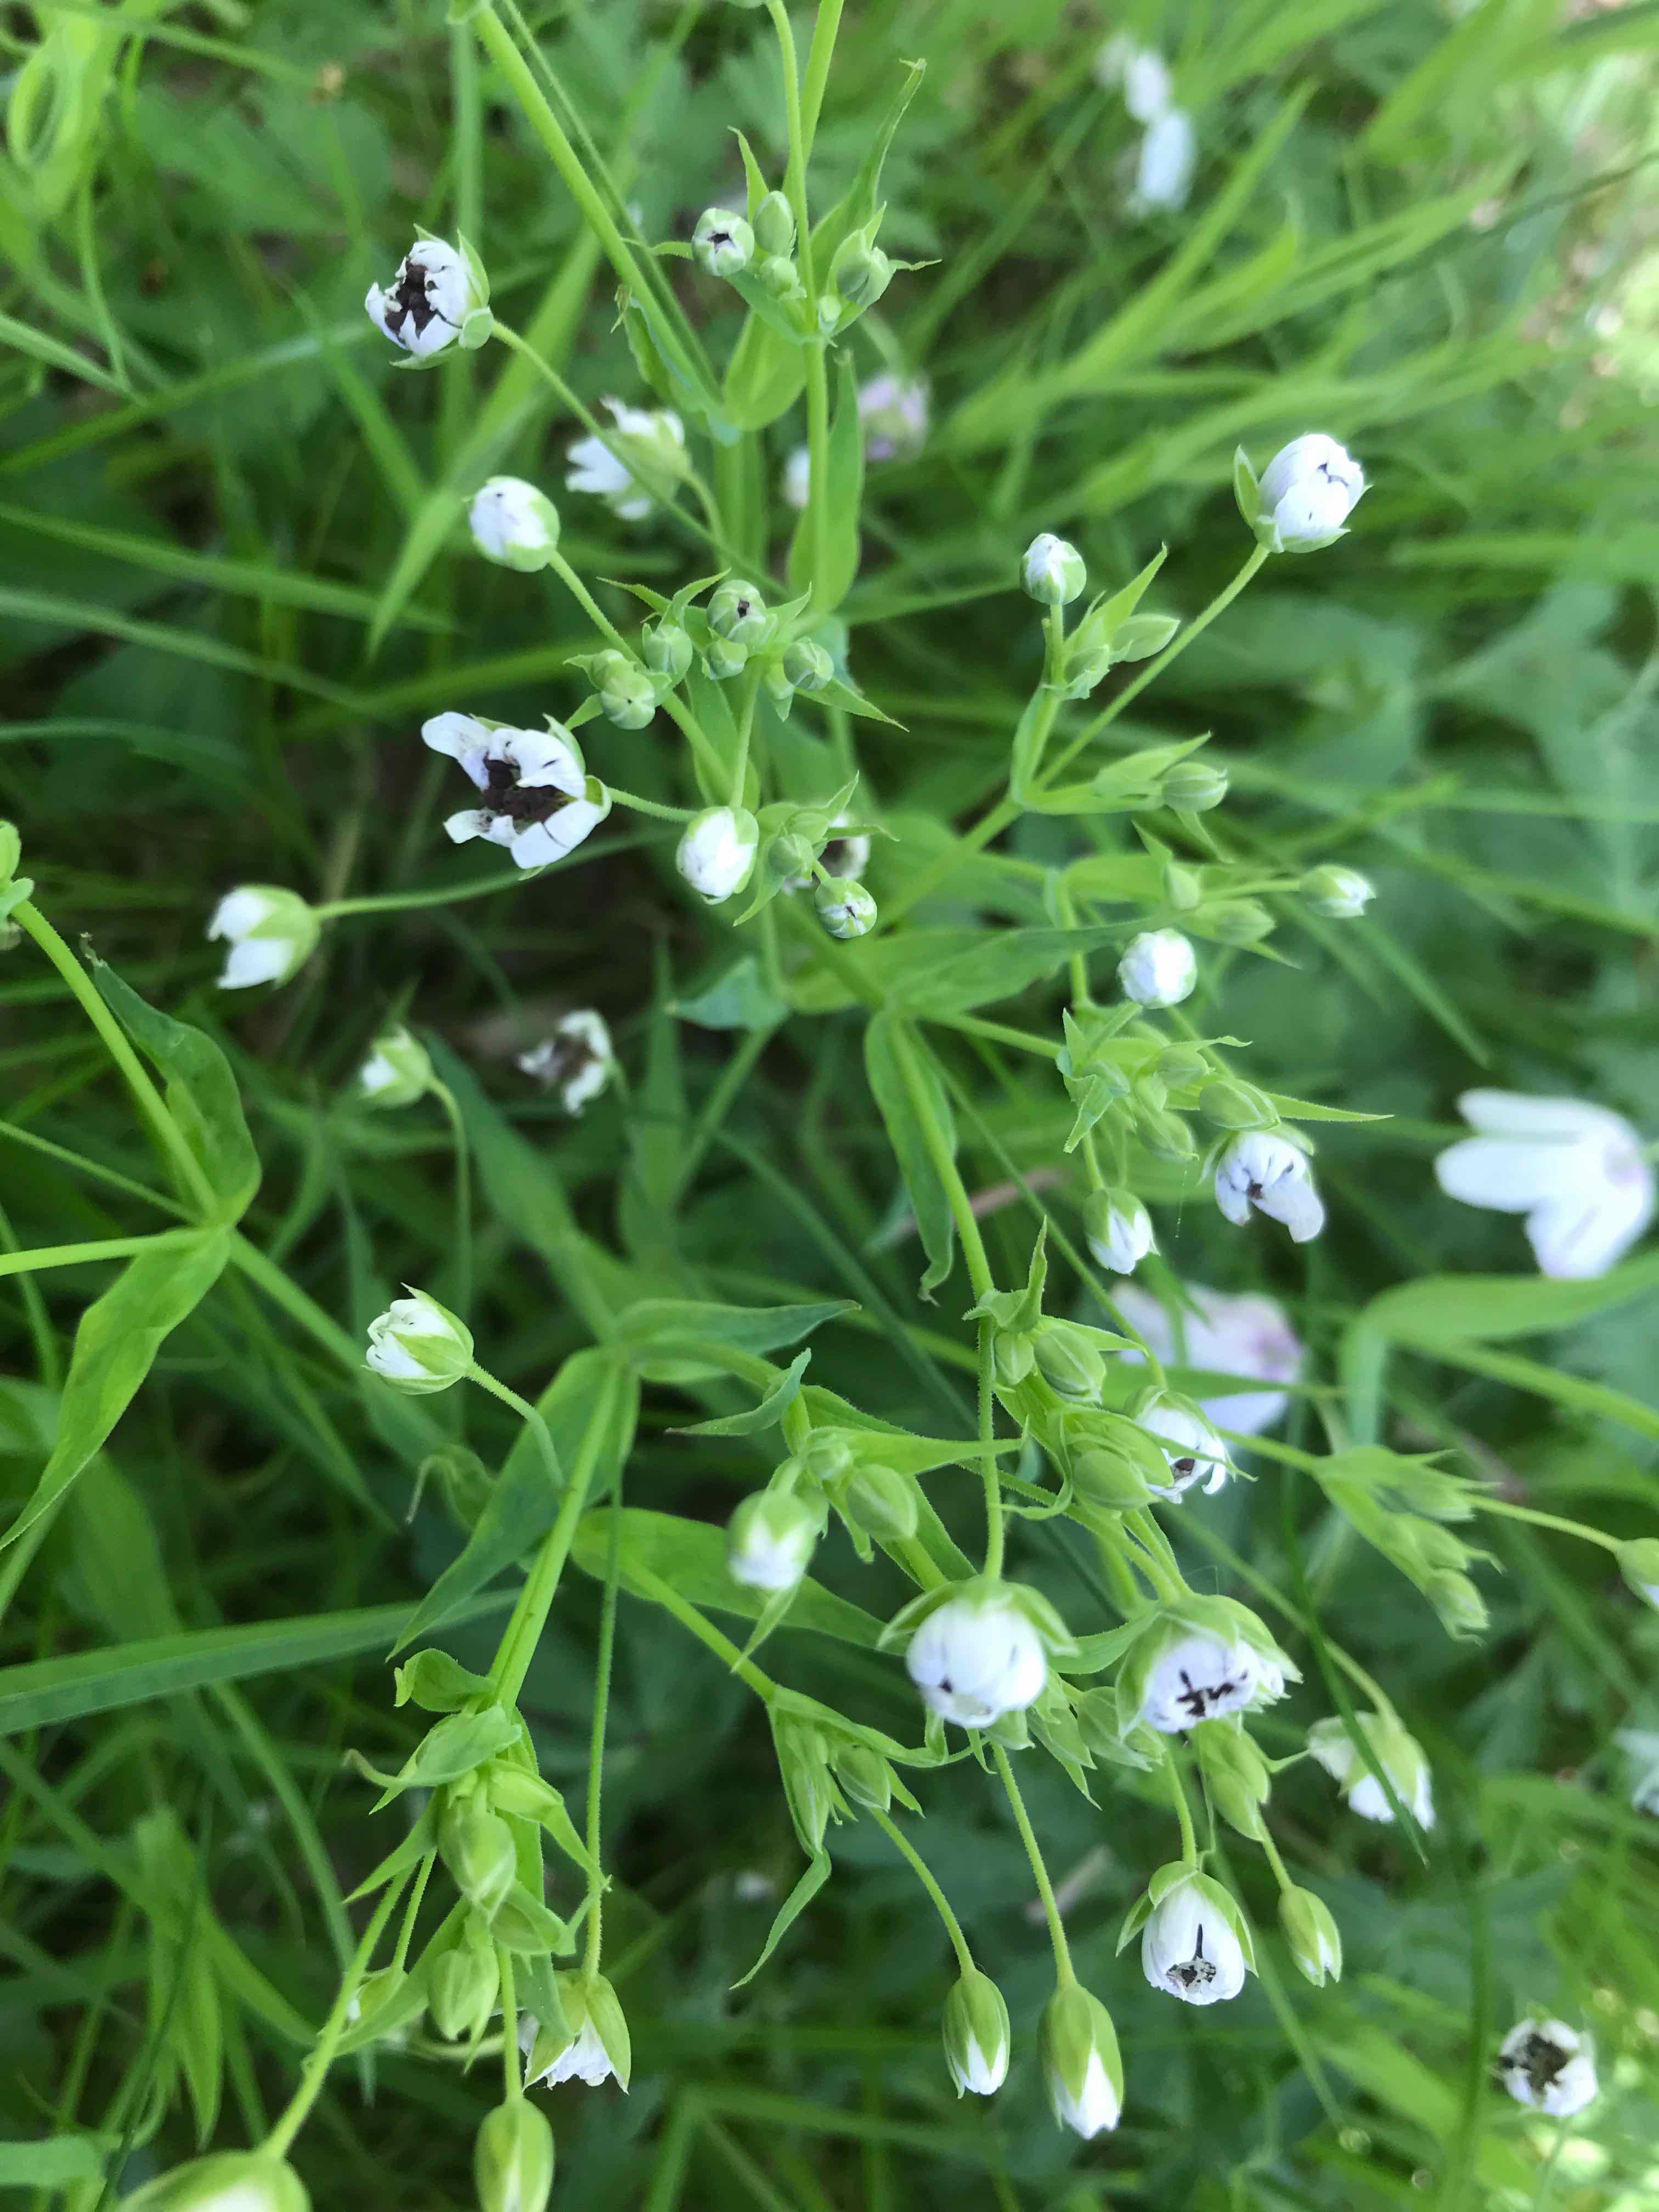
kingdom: Fungi
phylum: Basidiomycota
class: Microbotryomycetes
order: Microbotryales
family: Microbotryaceae
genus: Microbotryum
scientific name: Microbotryum stellariae
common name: fladstjerne-støvbladrust
